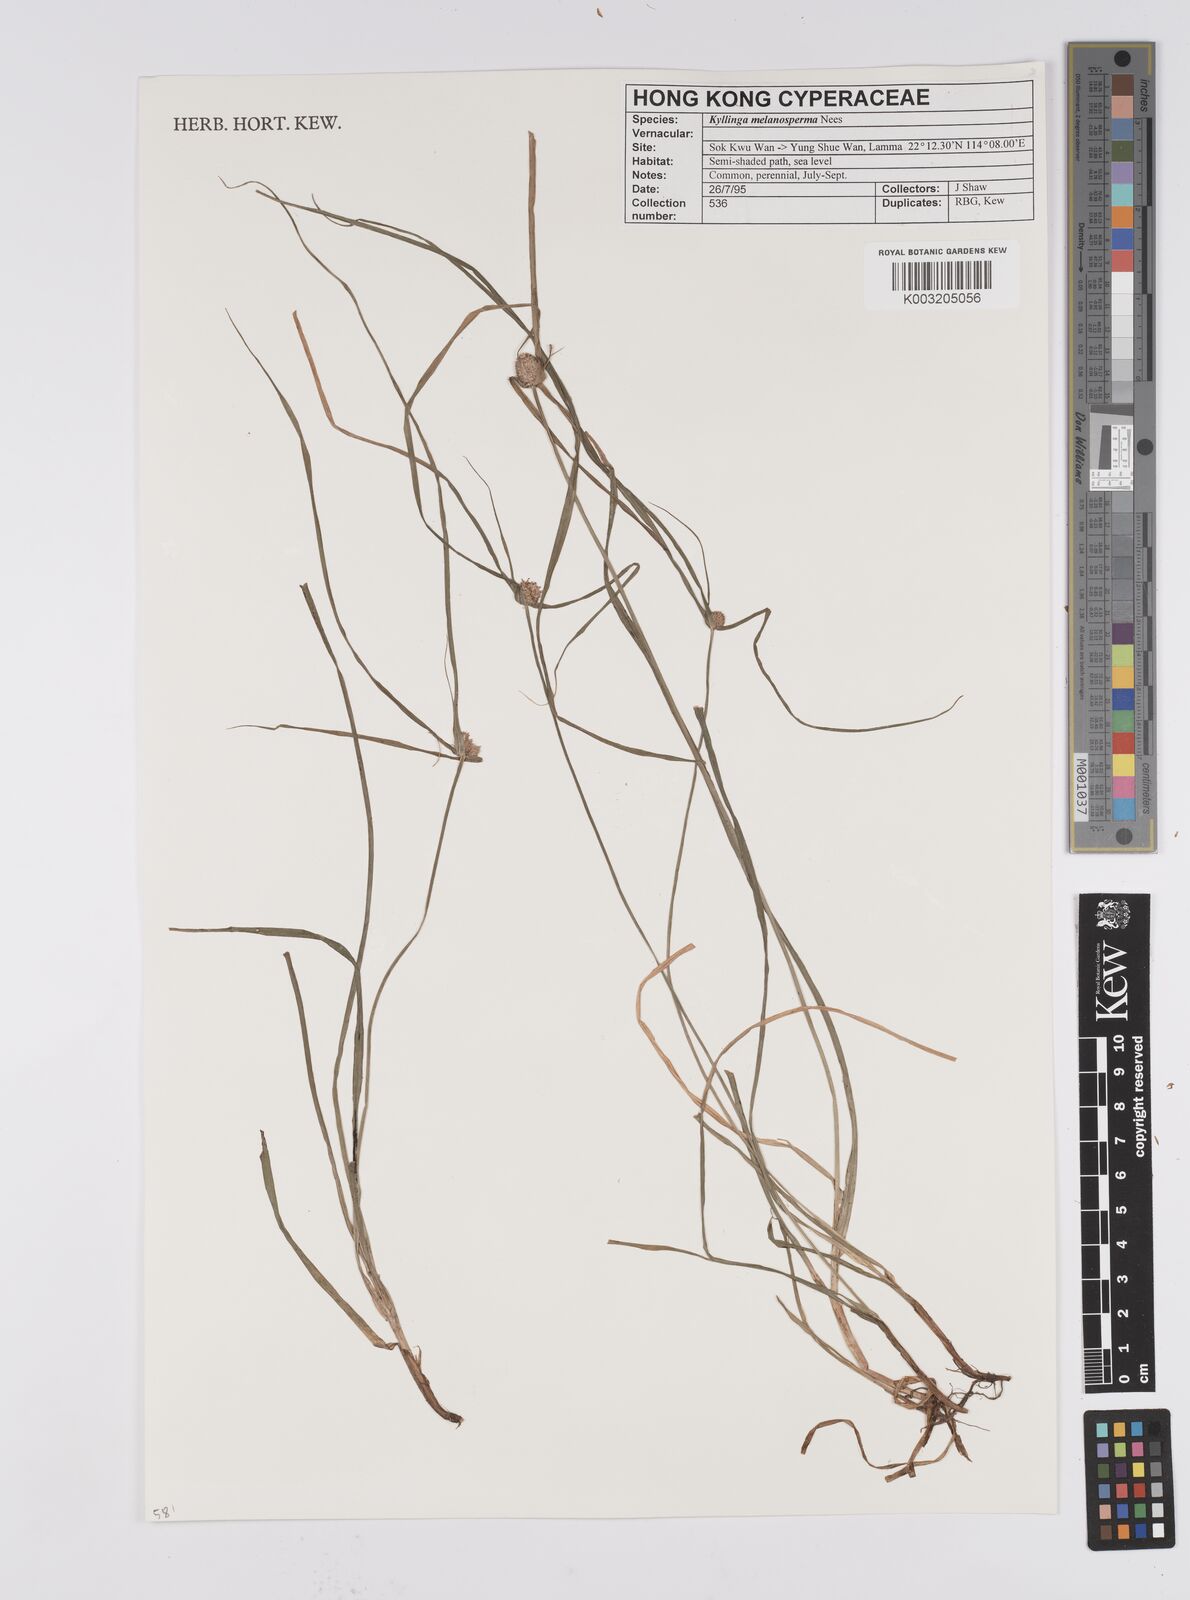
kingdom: Plantae
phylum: Tracheophyta
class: Liliopsida
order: Poales
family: Cyperaceae
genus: Cyperus
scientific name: Cyperus melanospermus
